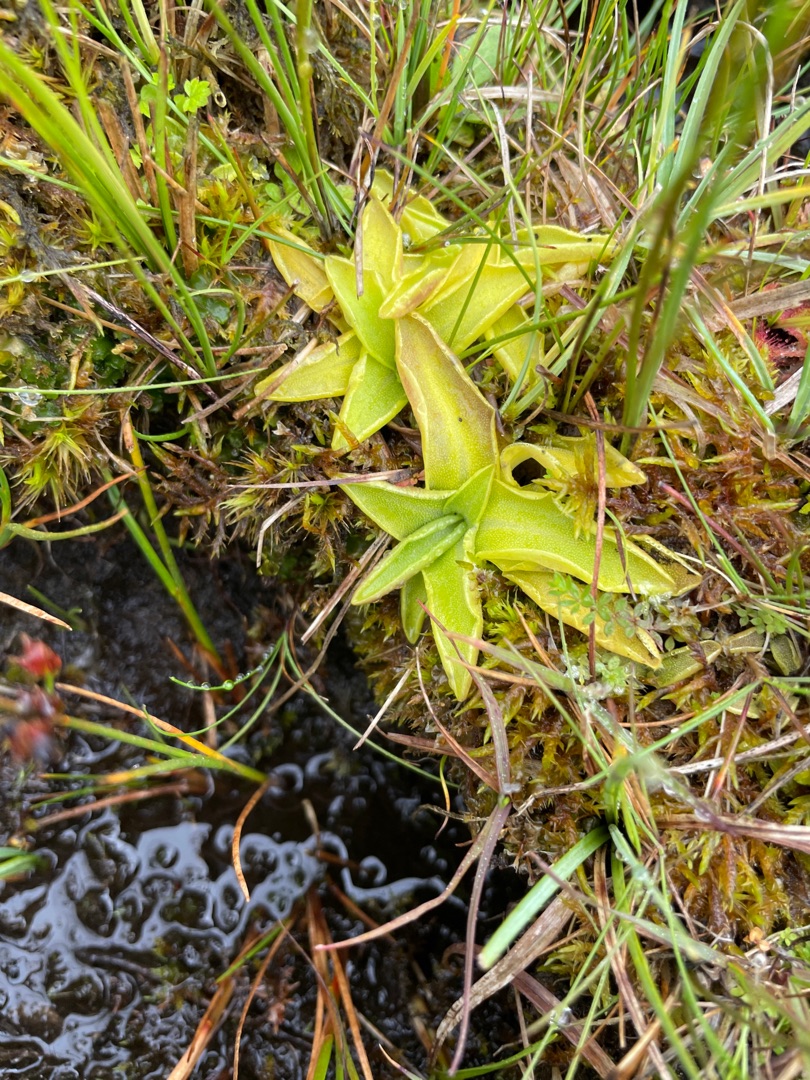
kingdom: Plantae
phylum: Tracheophyta
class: Magnoliopsida
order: Lamiales
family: Lentibulariaceae
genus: Pinguicula
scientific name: Pinguicula vulgaris
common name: Vibefedt
